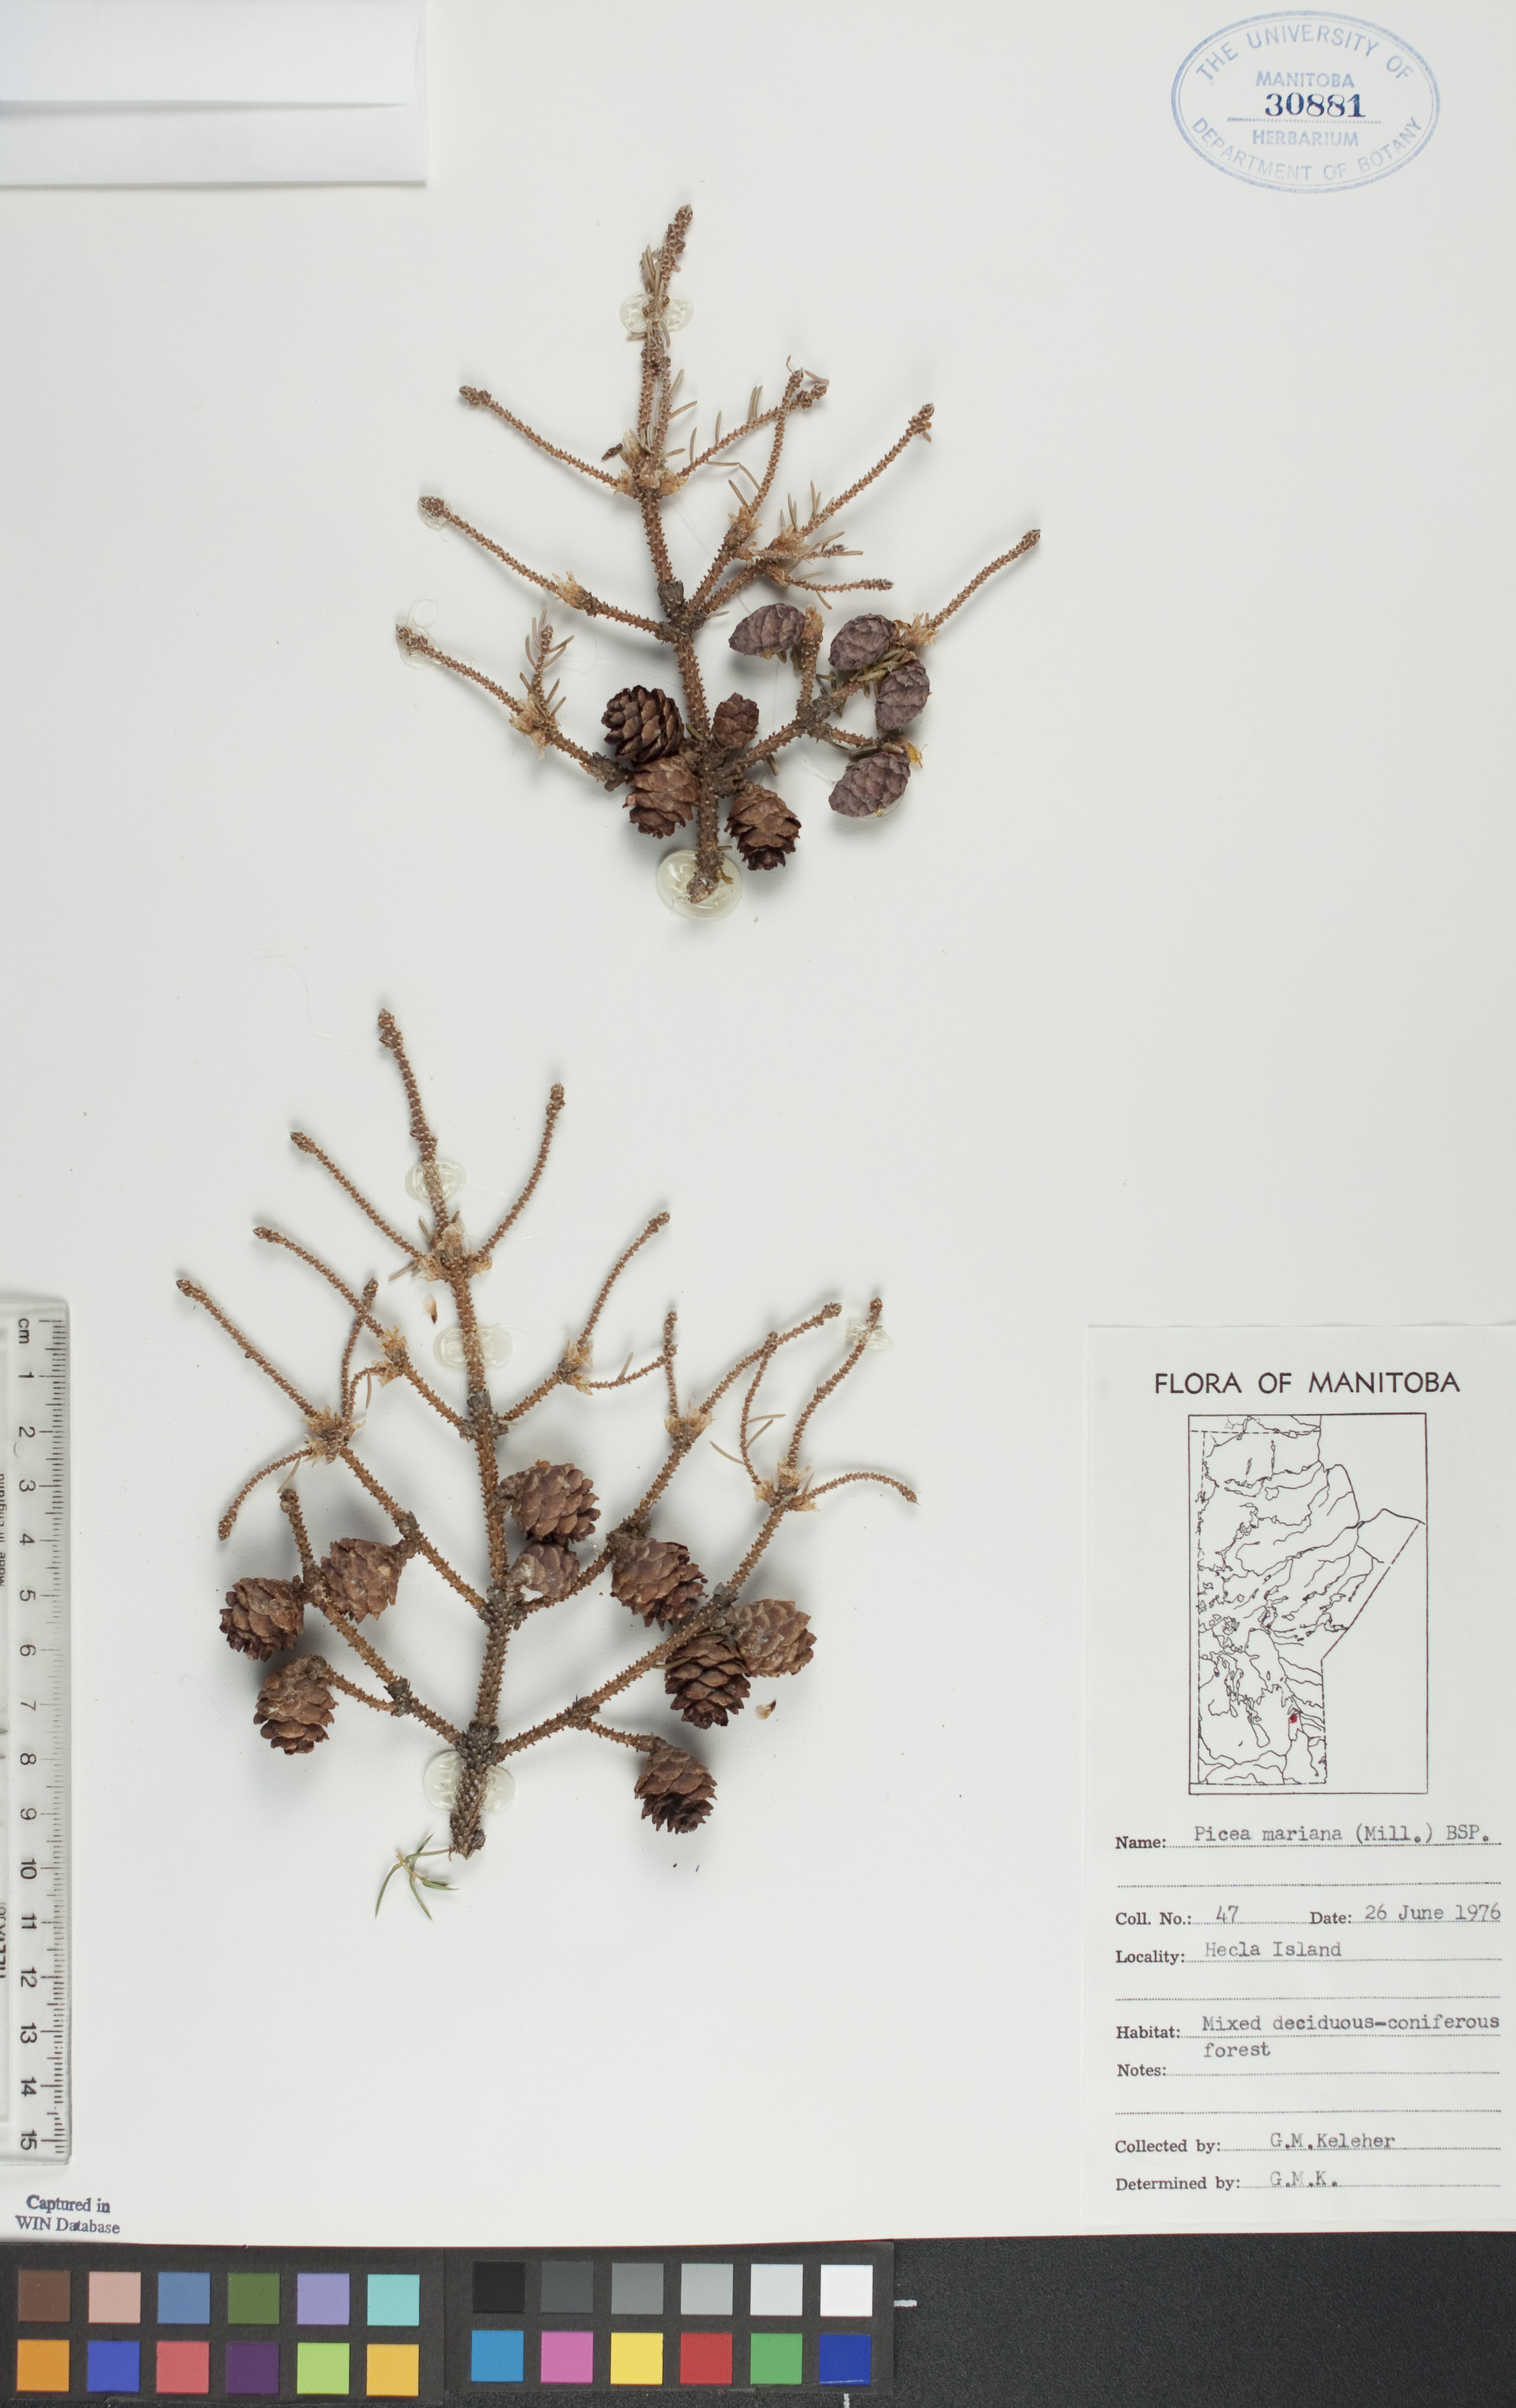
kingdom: Plantae
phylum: Tracheophyta
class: Pinopsida
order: Pinales
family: Pinaceae
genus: Picea
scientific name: Picea mariana
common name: Black spruce
